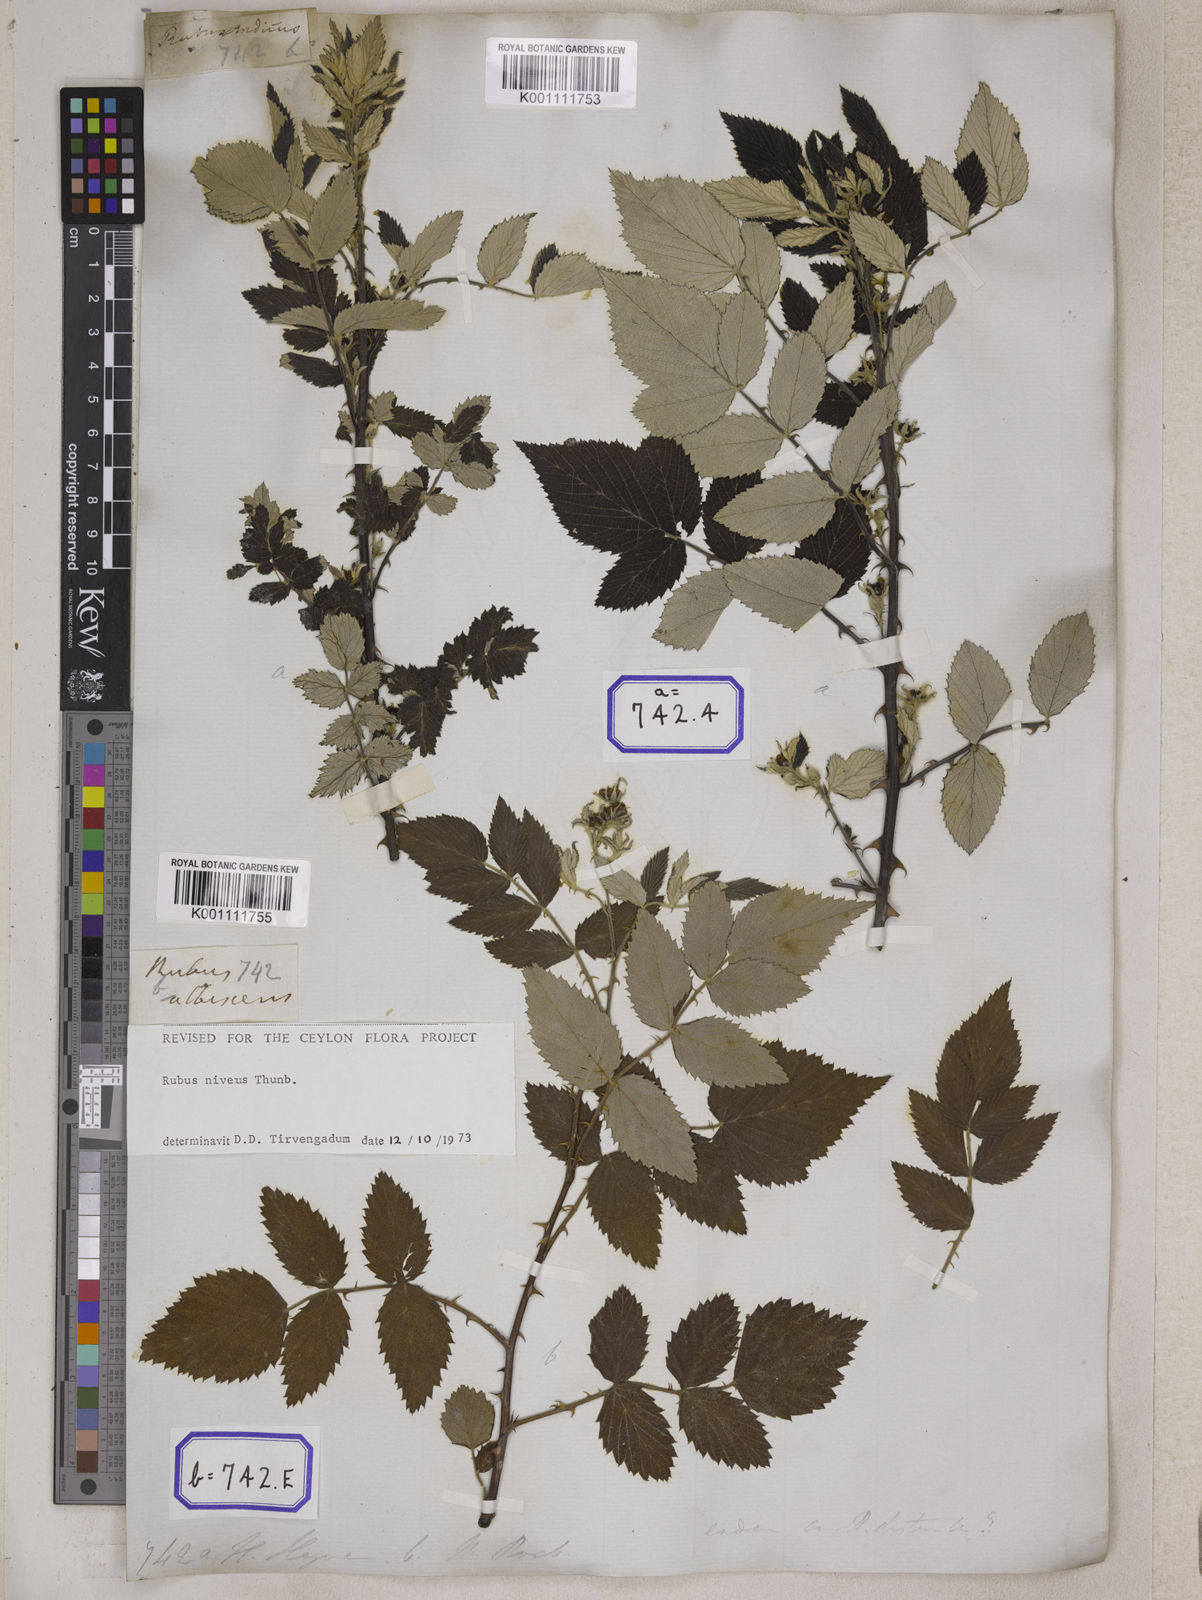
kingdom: Plantae
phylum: Tracheophyta
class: Magnoliopsida
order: Rosales
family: Rosaceae
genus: Rubus
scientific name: Rubus niveus
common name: Snowpeaks raspberry
